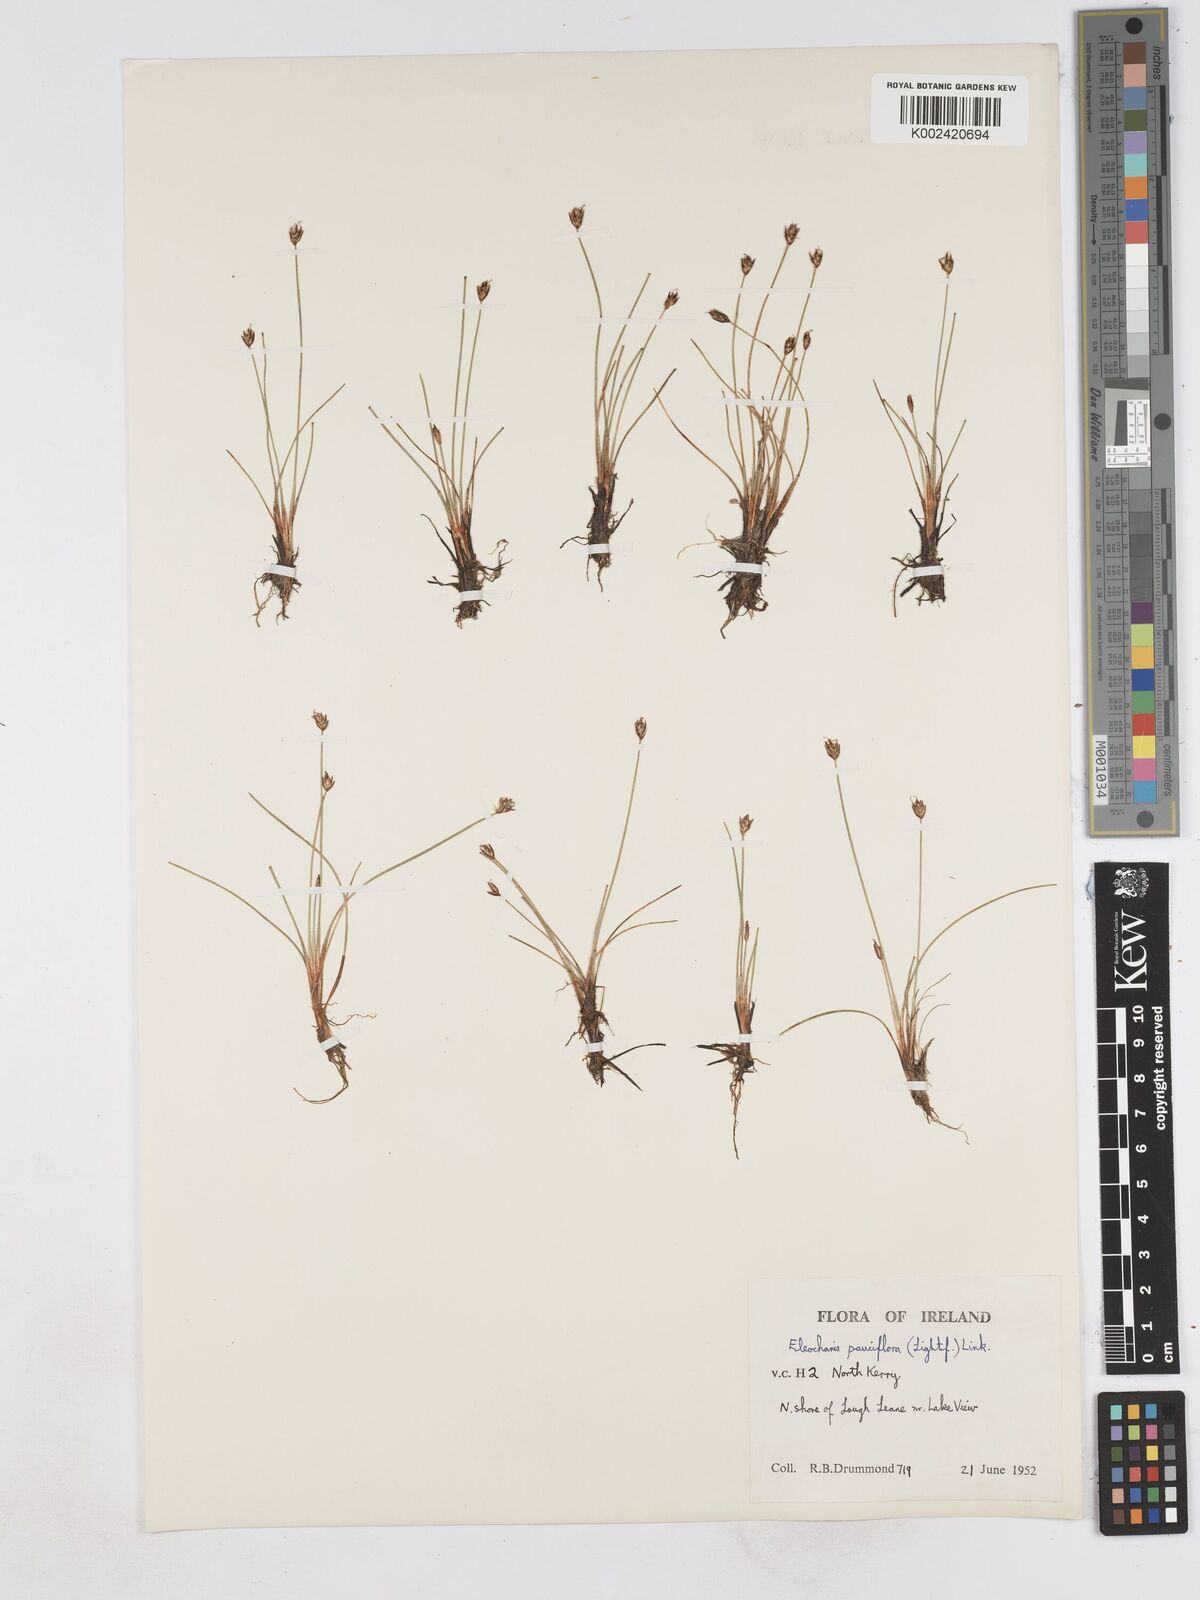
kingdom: Plantae
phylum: Tracheophyta
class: Liliopsida
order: Poales
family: Cyperaceae
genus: Eleocharis
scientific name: Eleocharis quinqueflora
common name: Few-flowered spike-rush
